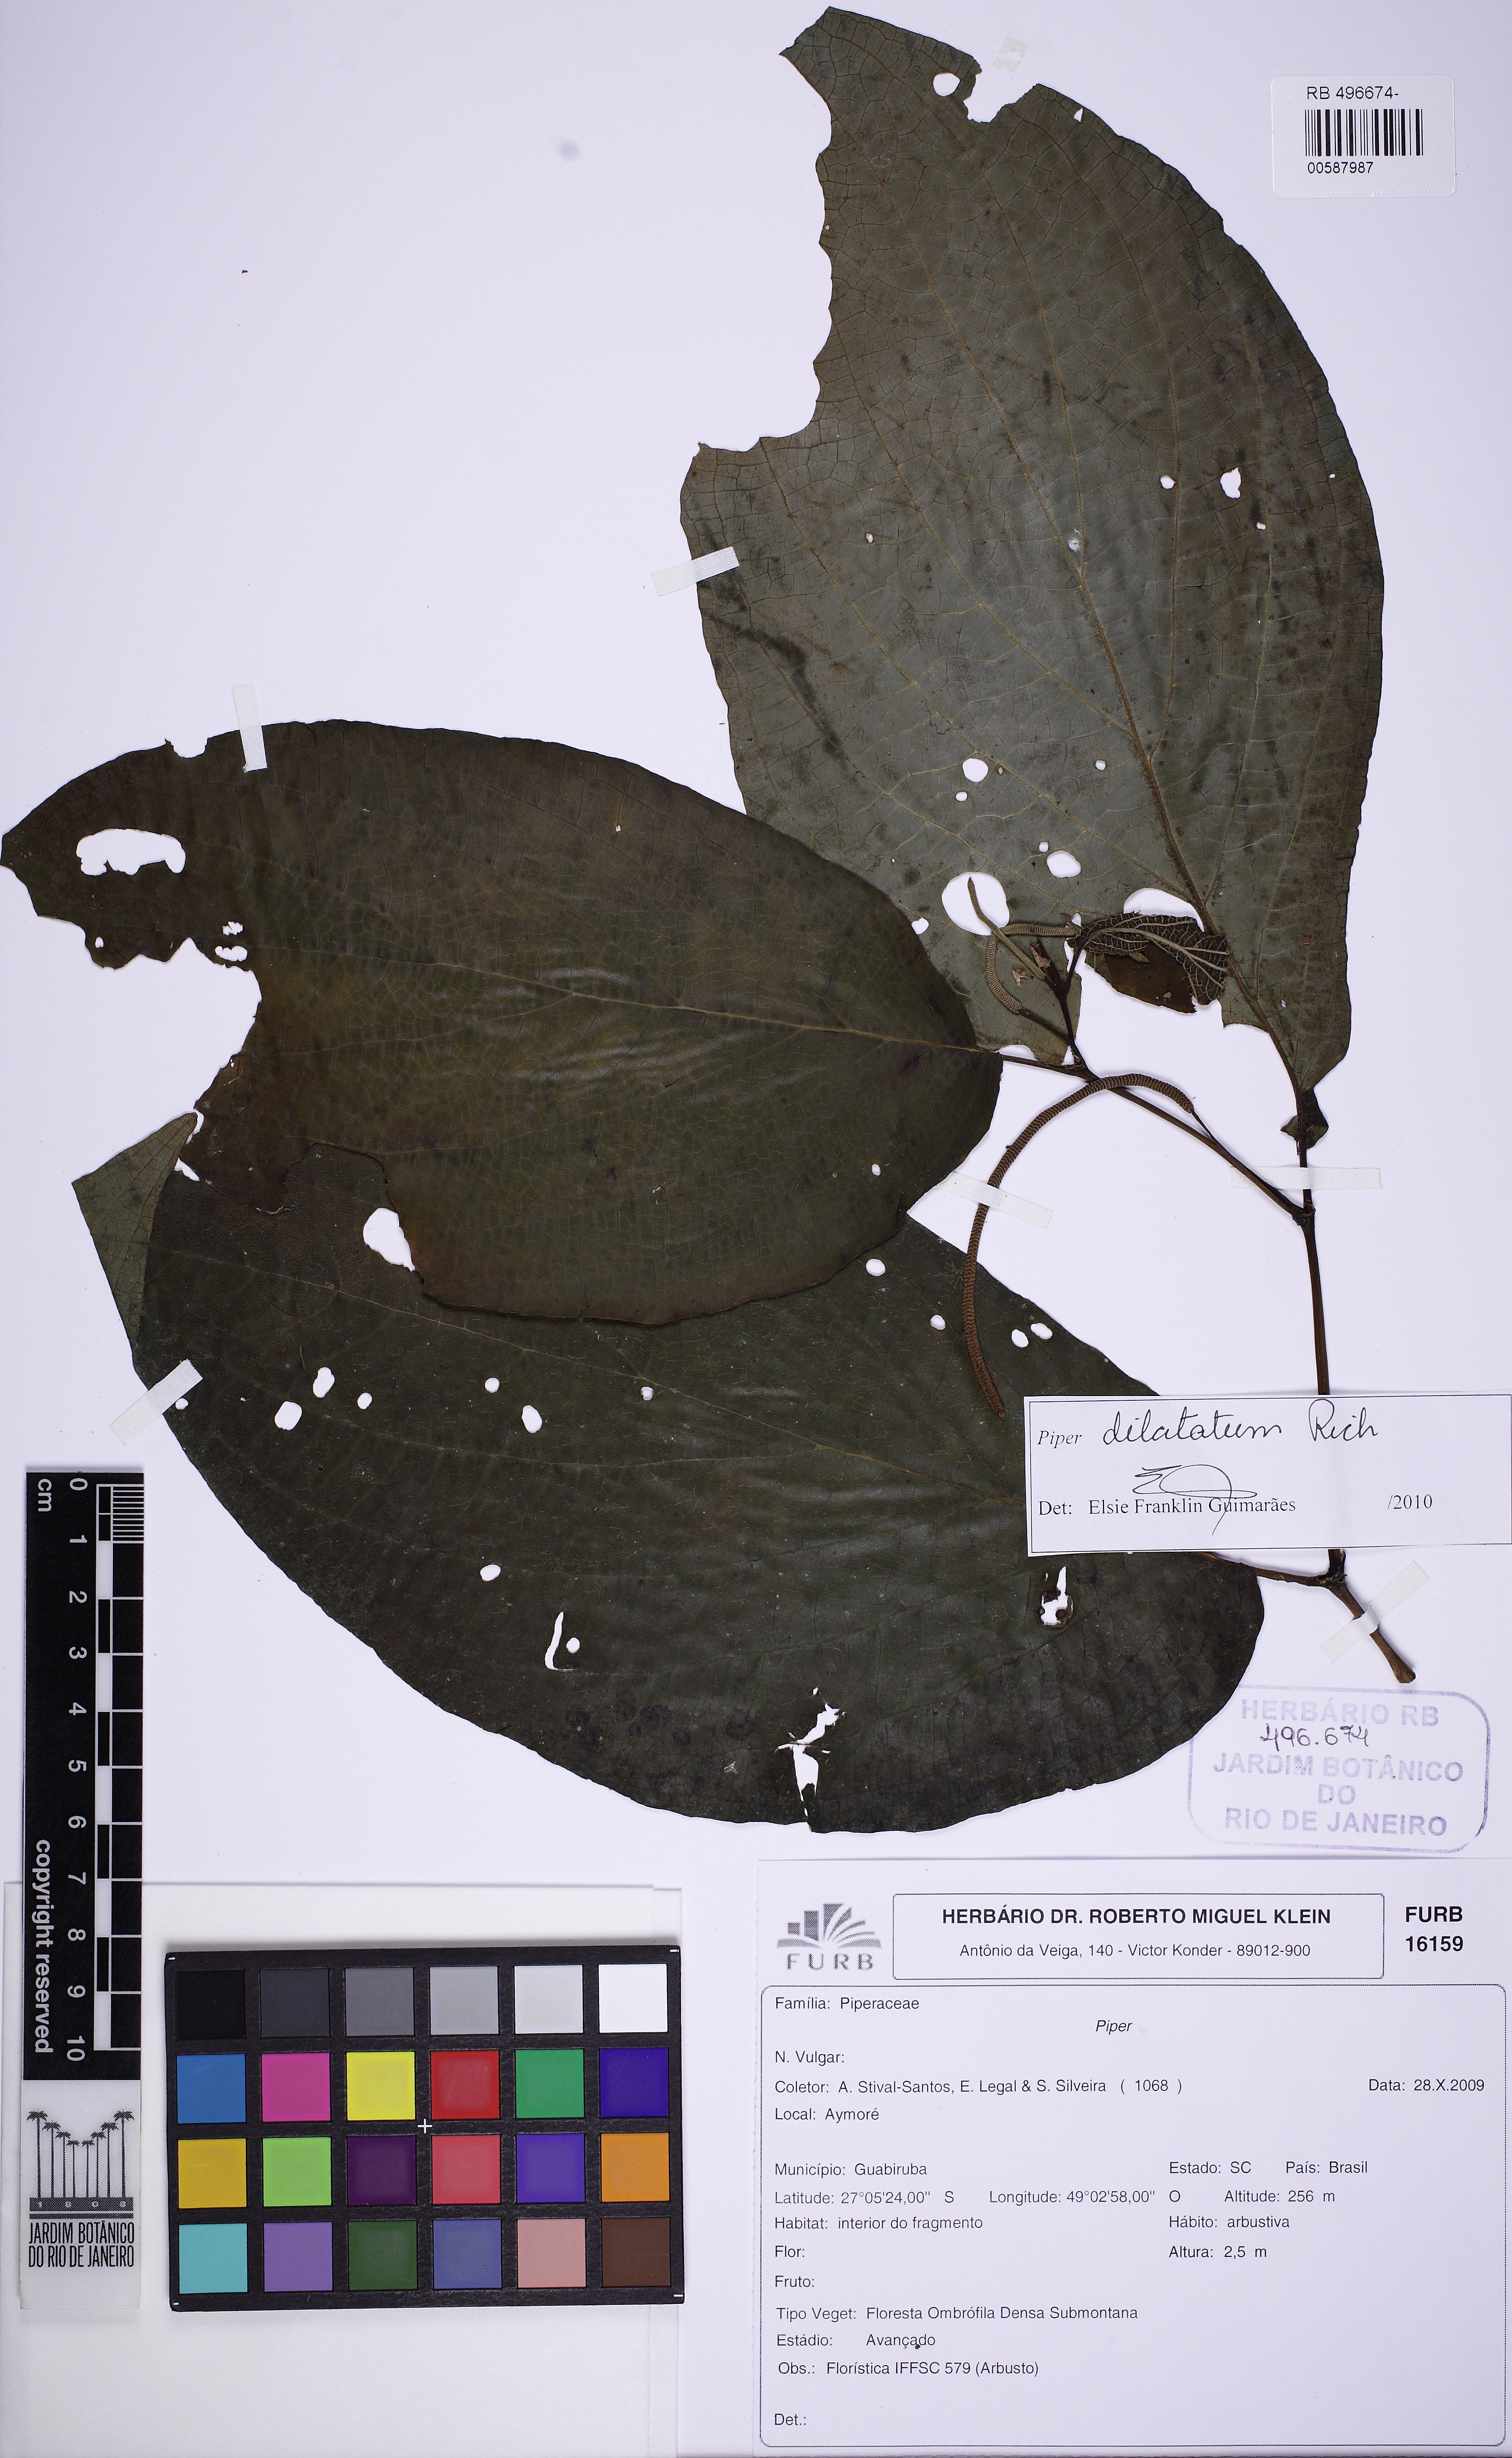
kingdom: Plantae
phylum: Tracheophyta
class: Magnoliopsida
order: Piperales
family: Piperaceae
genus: Piper
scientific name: Piper dilatatum
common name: Higuillo
